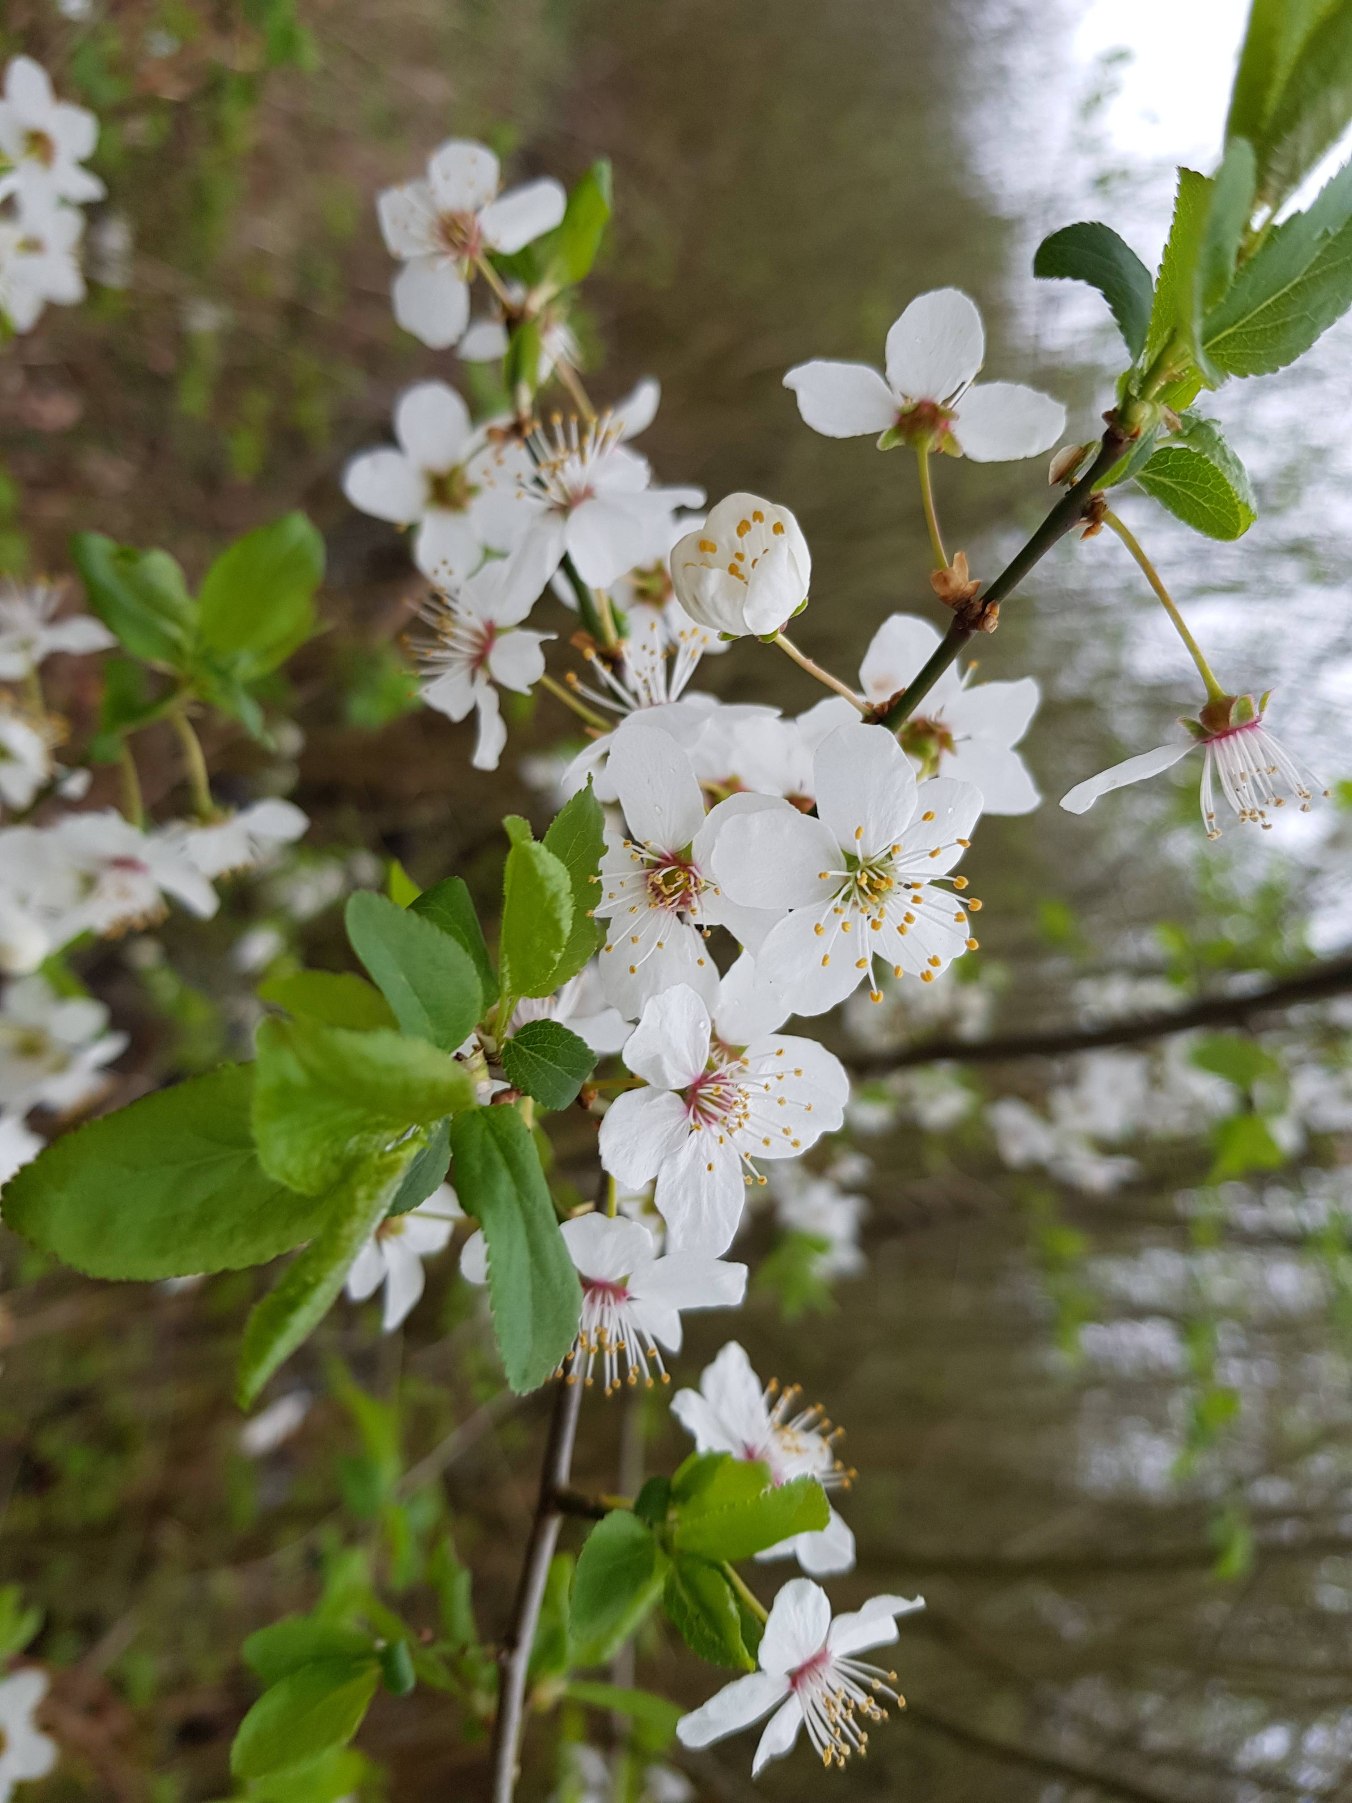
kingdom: Plantae
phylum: Tracheophyta
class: Magnoliopsida
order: Rosales
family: Rosaceae
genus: Prunus
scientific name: Prunus cerasifera
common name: Mirabel
